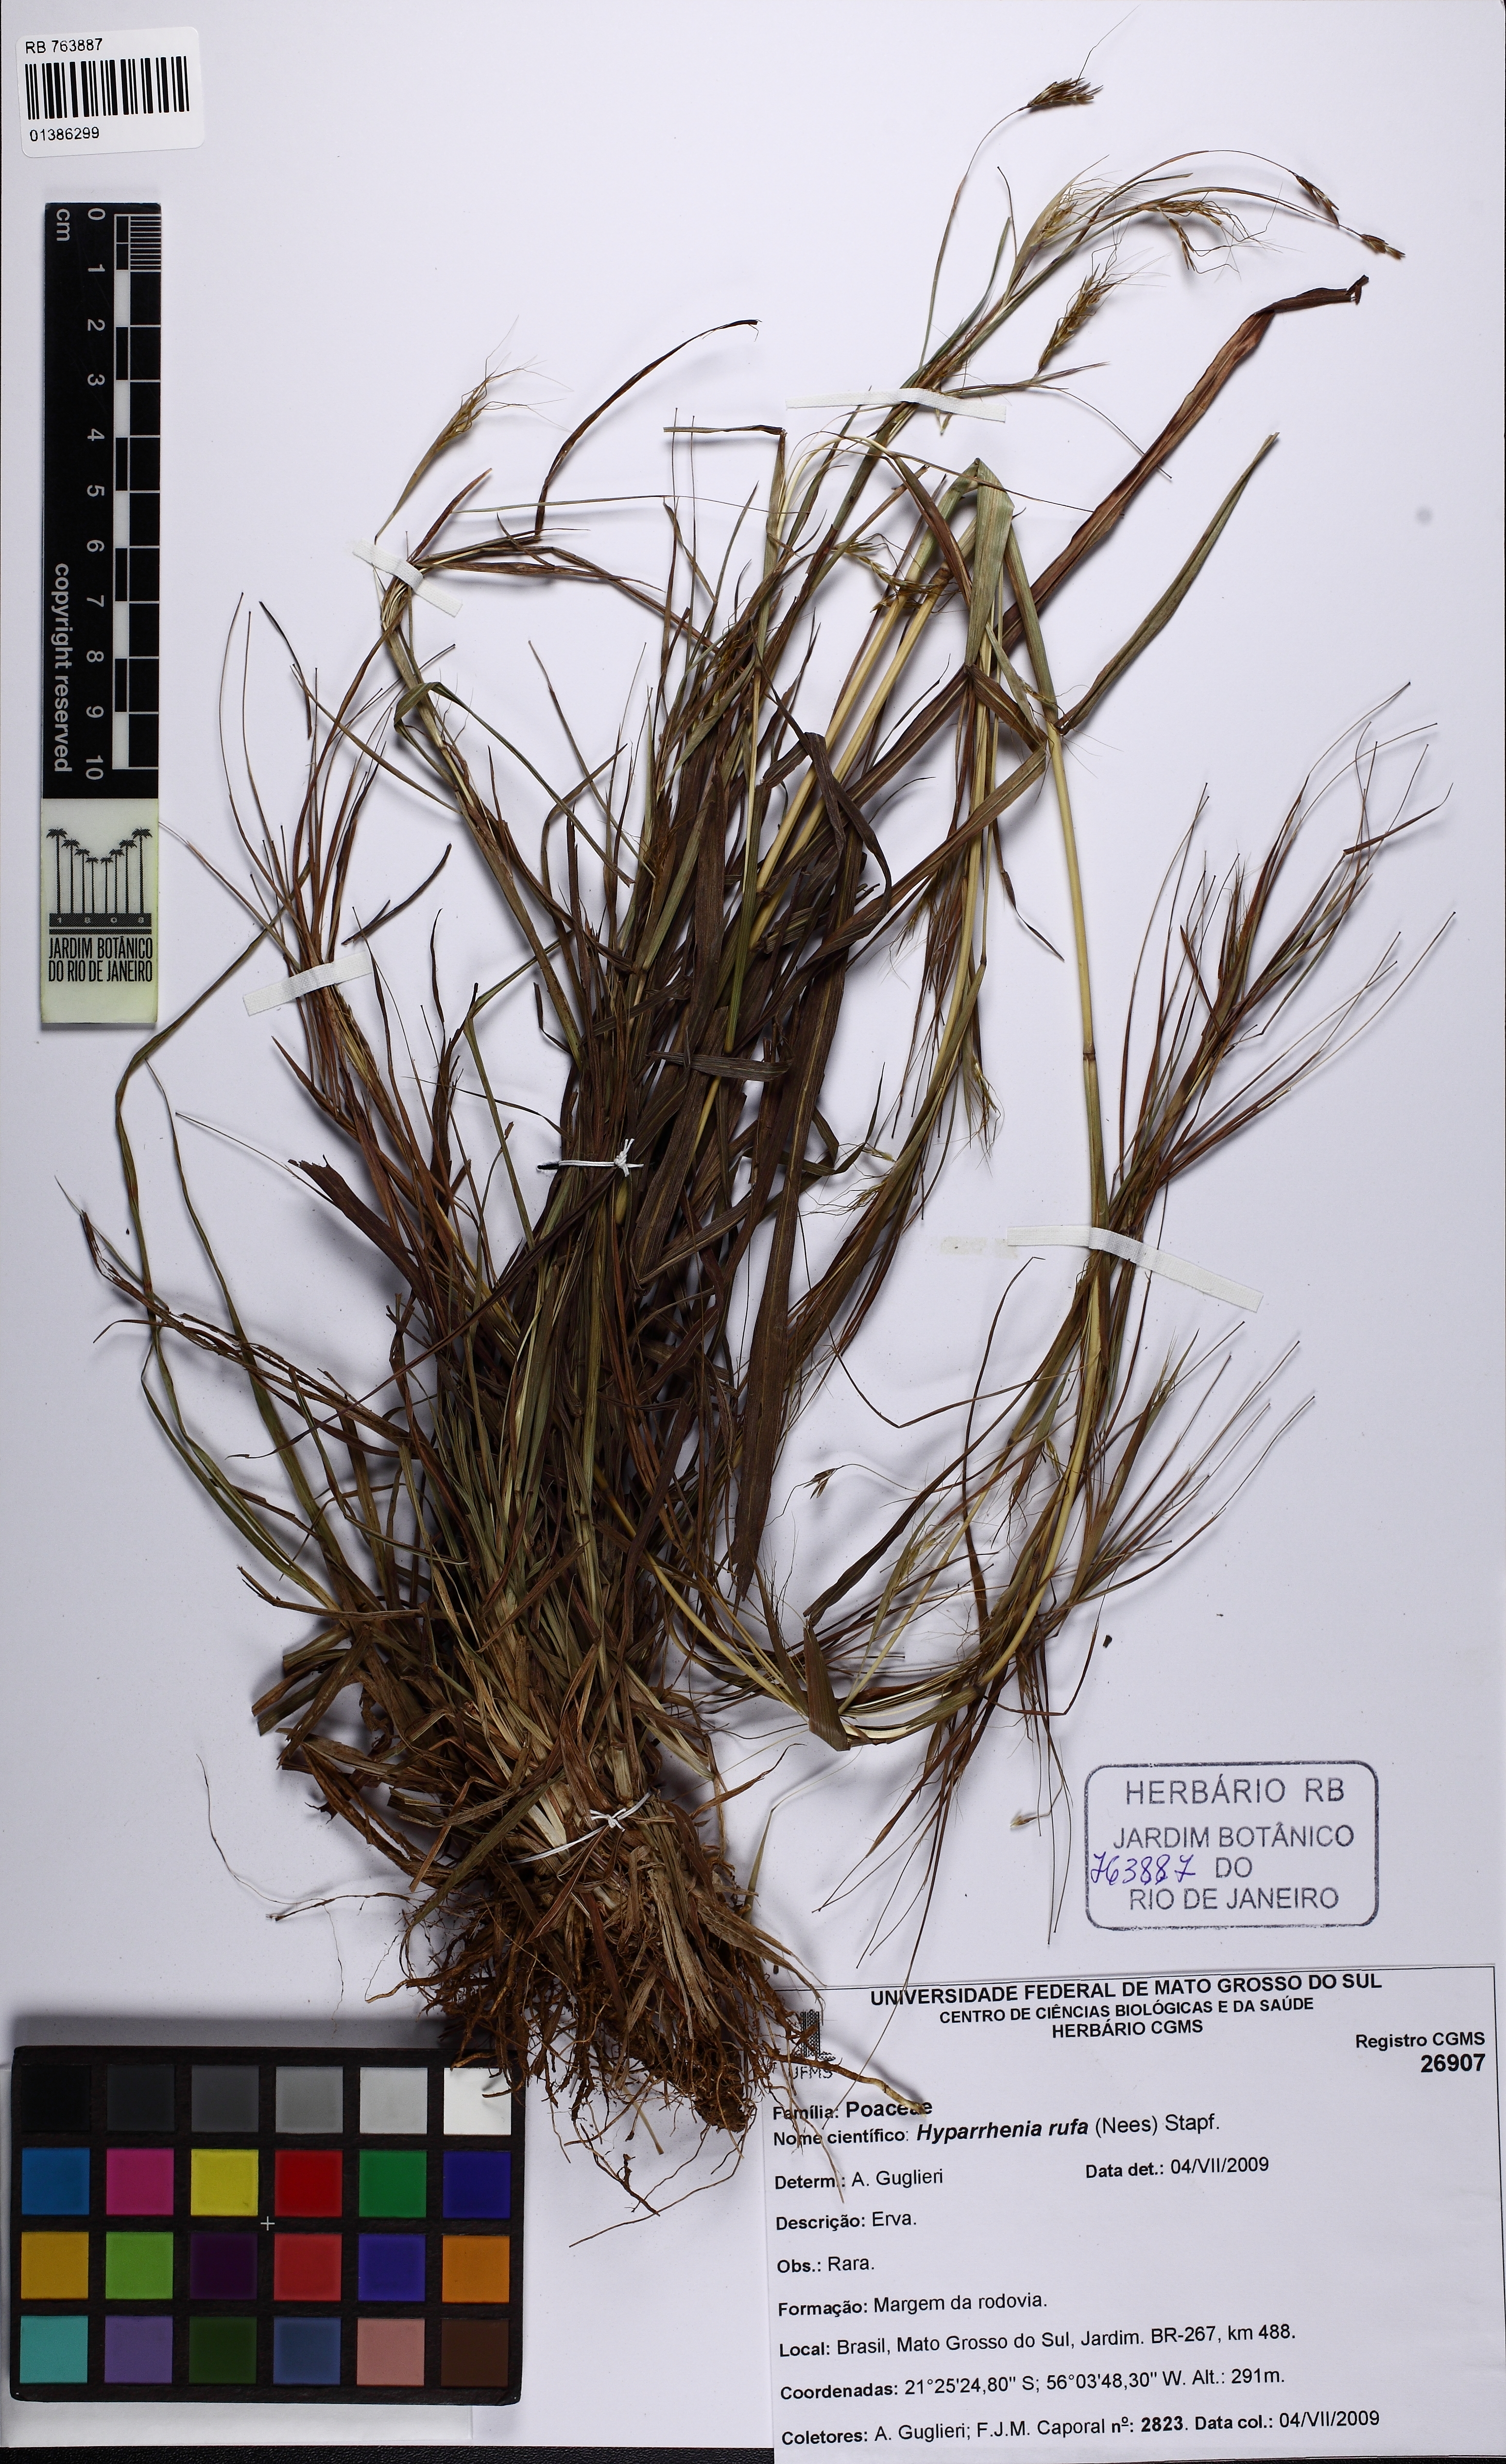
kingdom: Plantae
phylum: Tracheophyta
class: Liliopsida
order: Poales
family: Poaceae
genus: Hyparrhenia
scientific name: Hyparrhenia rufa
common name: Jaraguagrass
